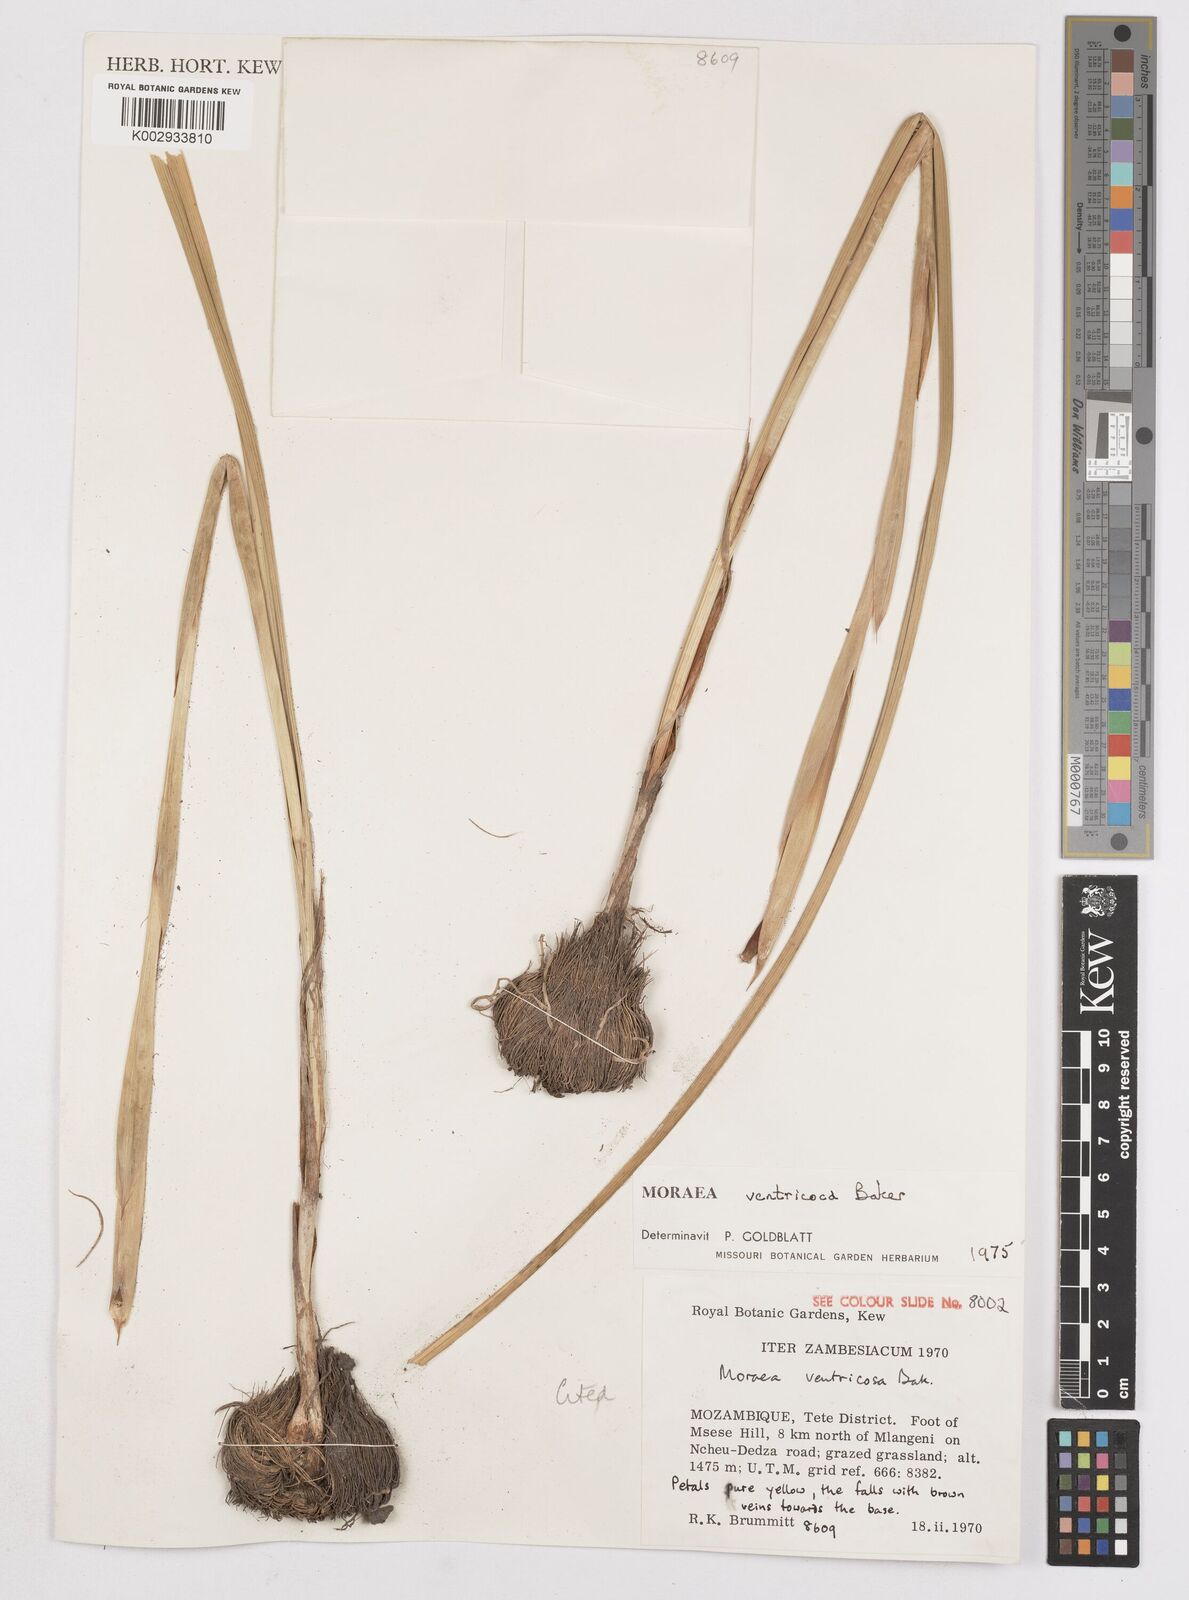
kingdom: Plantae
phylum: Tracheophyta
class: Liliopsida
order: Asparagales
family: Iridaceae
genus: Moraea
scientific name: Moraea verdickii
